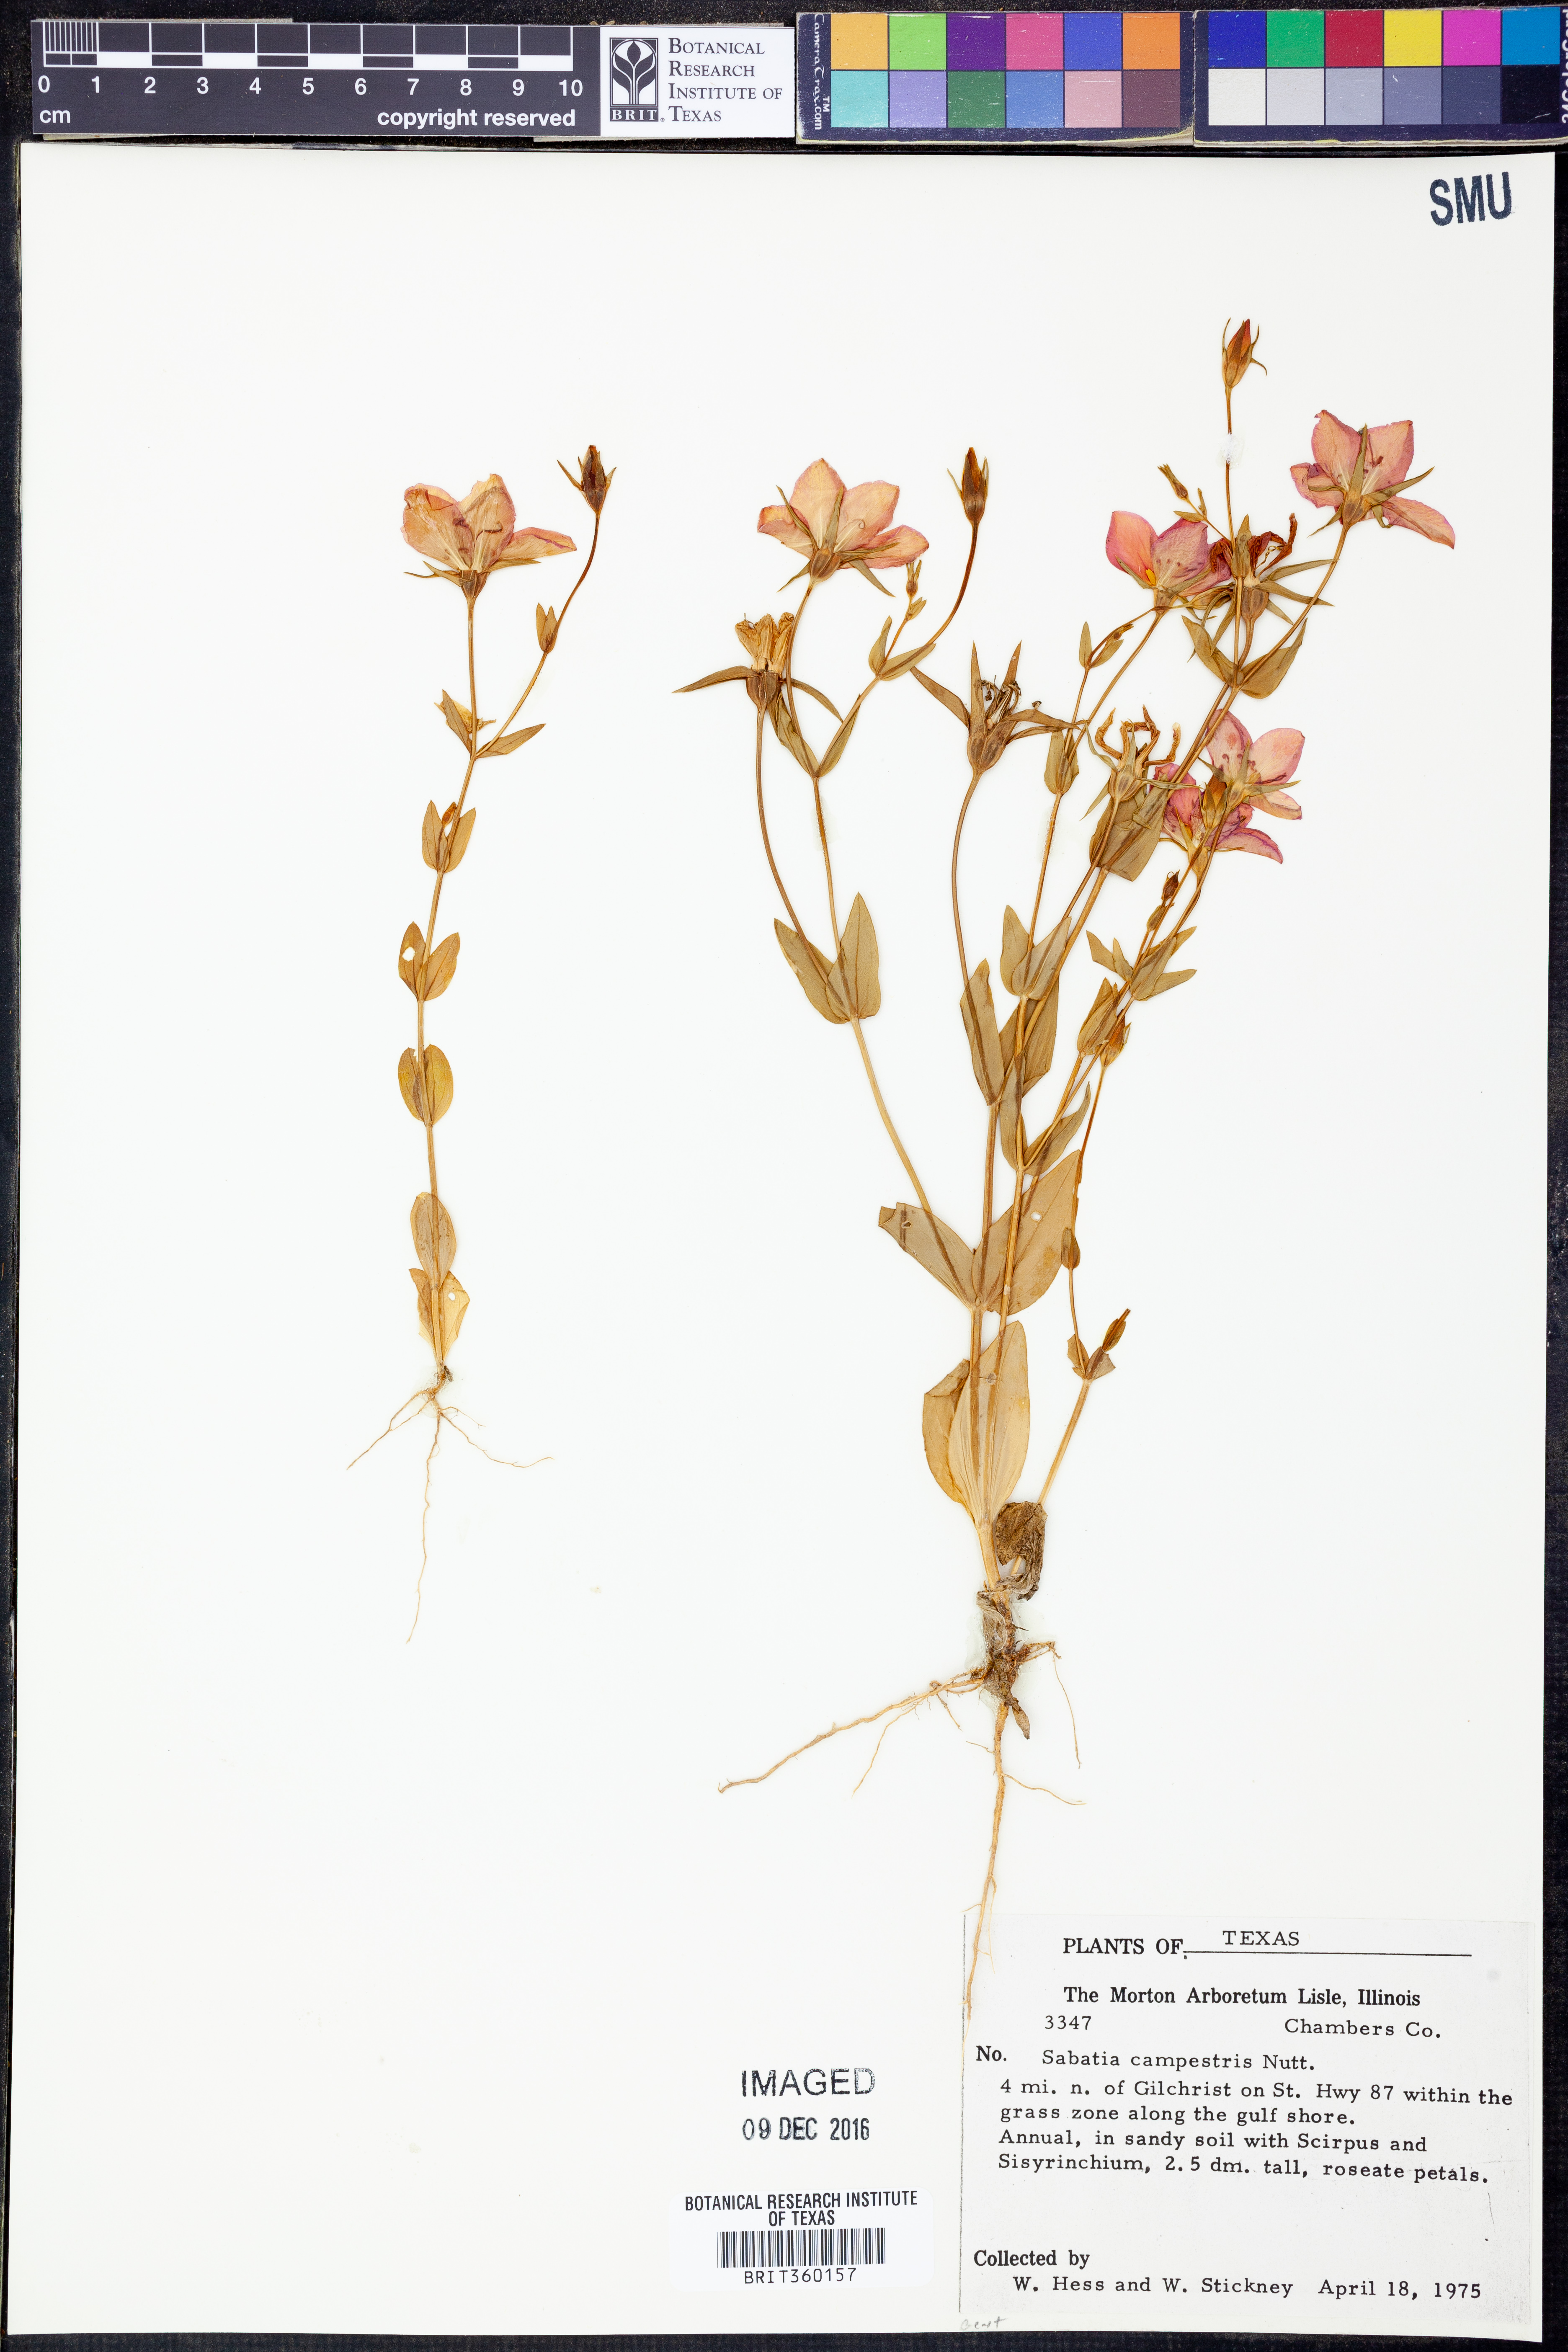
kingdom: Plantae
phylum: Tracheophyta
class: Magnoliopsida
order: Gentianales
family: Gentianaceae
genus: Sabatia
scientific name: Sabatia campestris
